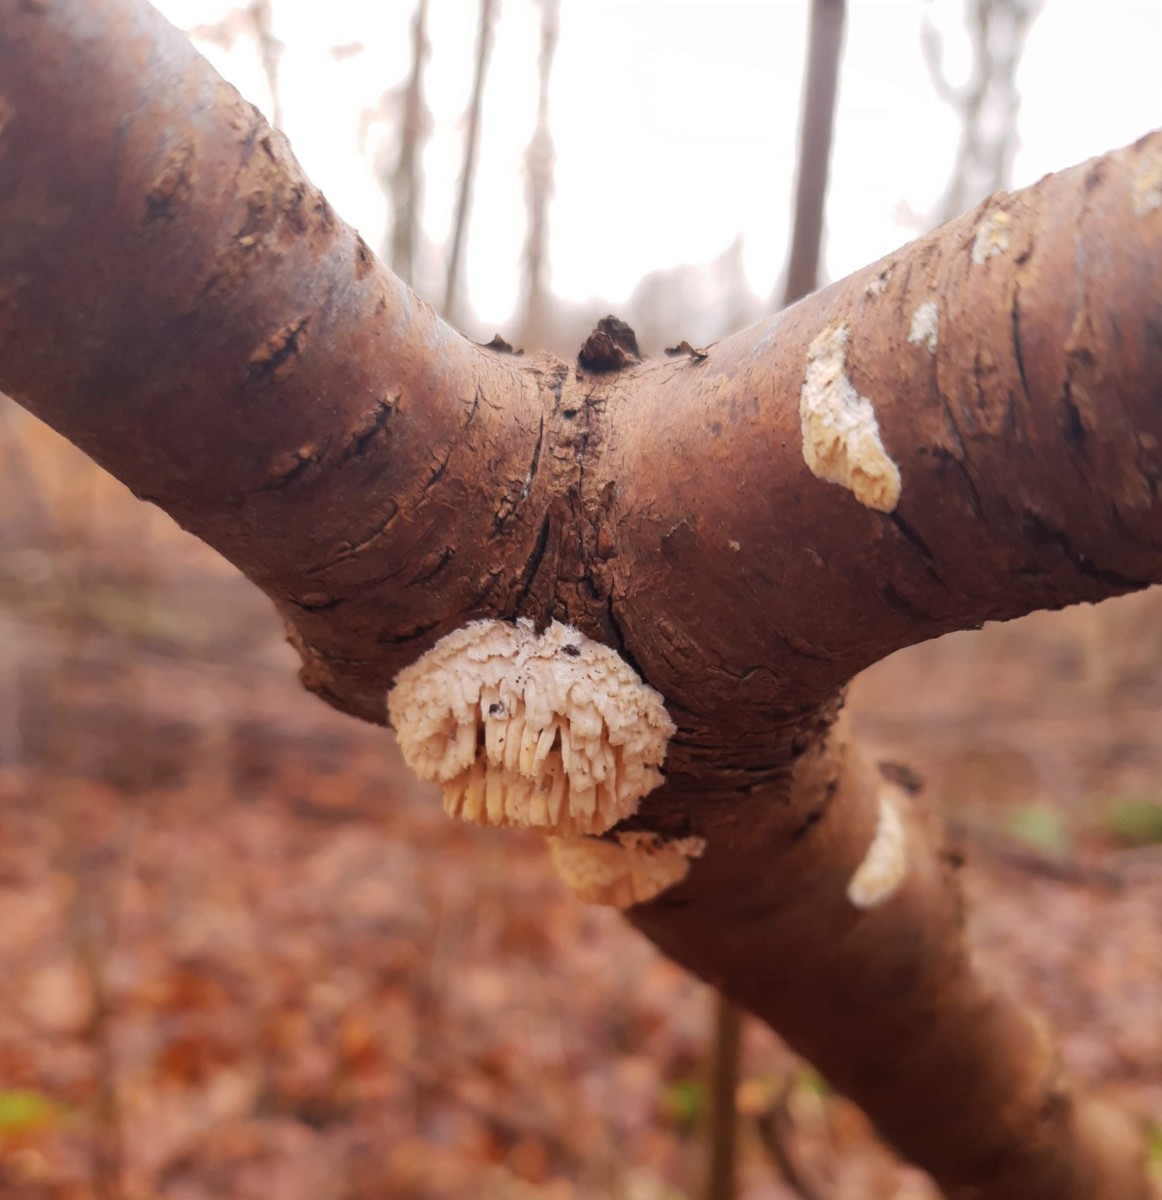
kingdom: Fungi
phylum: Basidiomycota
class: Agaricomycetes
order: Hymenochaetales
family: Schizoporaceae
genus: Xylodon
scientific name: Xylodon radula
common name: grovtandet kalkskind
